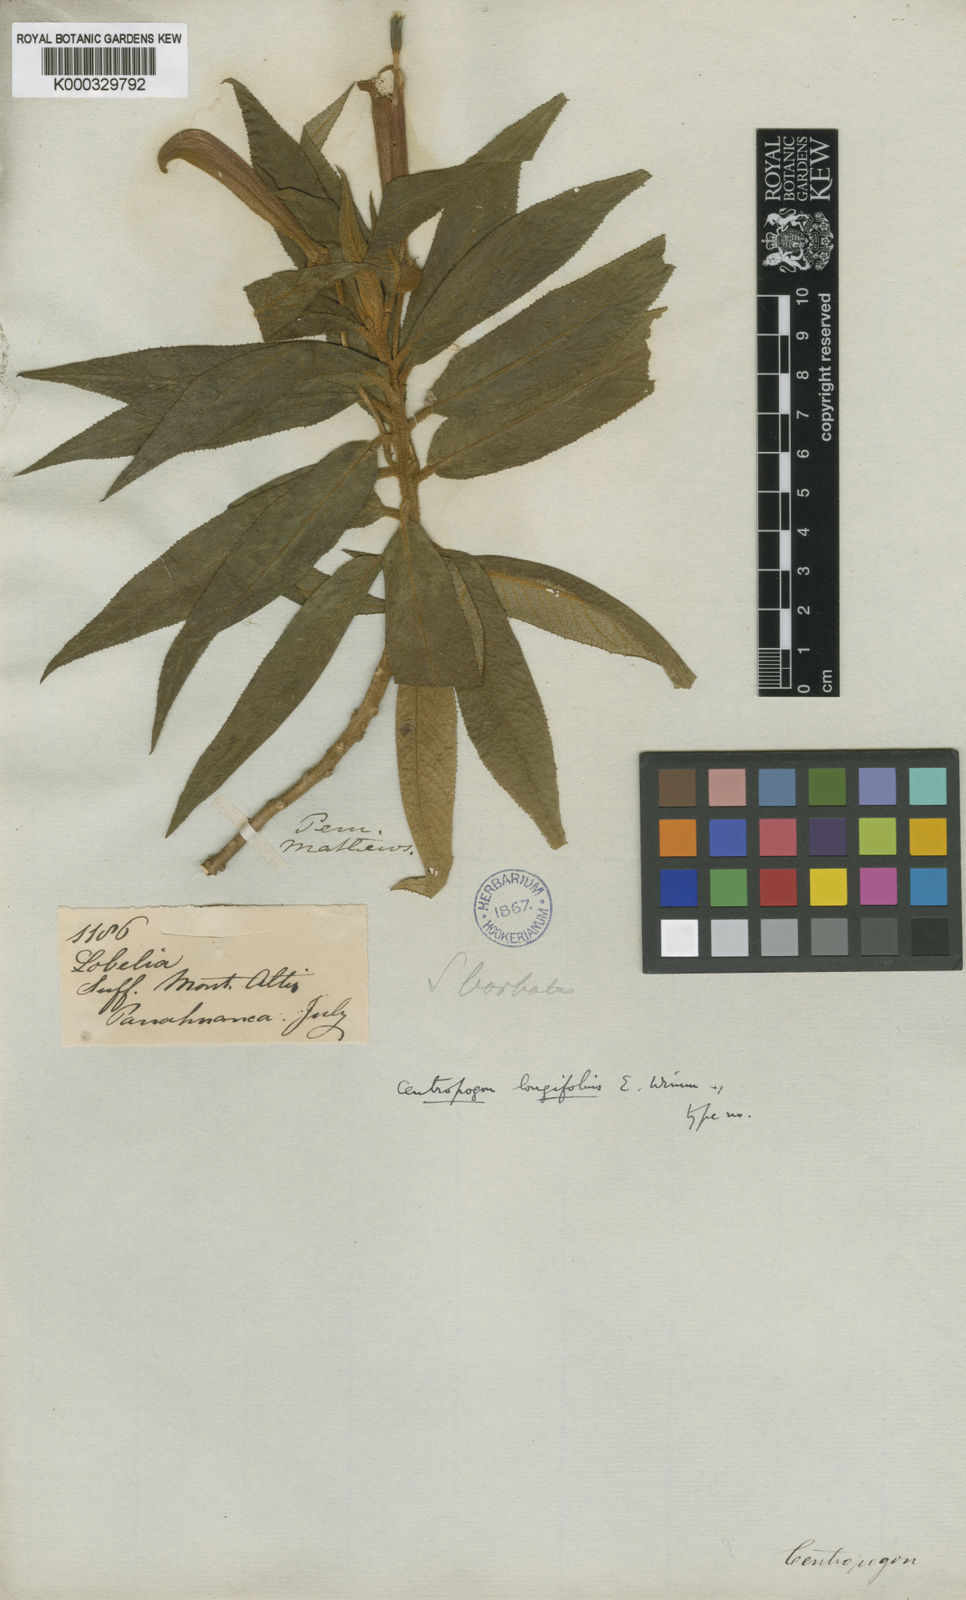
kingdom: Plantae
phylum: Tracheophyta
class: Magnoliopsida
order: Asterales
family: Campanulaceae
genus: Centropogon
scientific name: Centropogon longifolius
